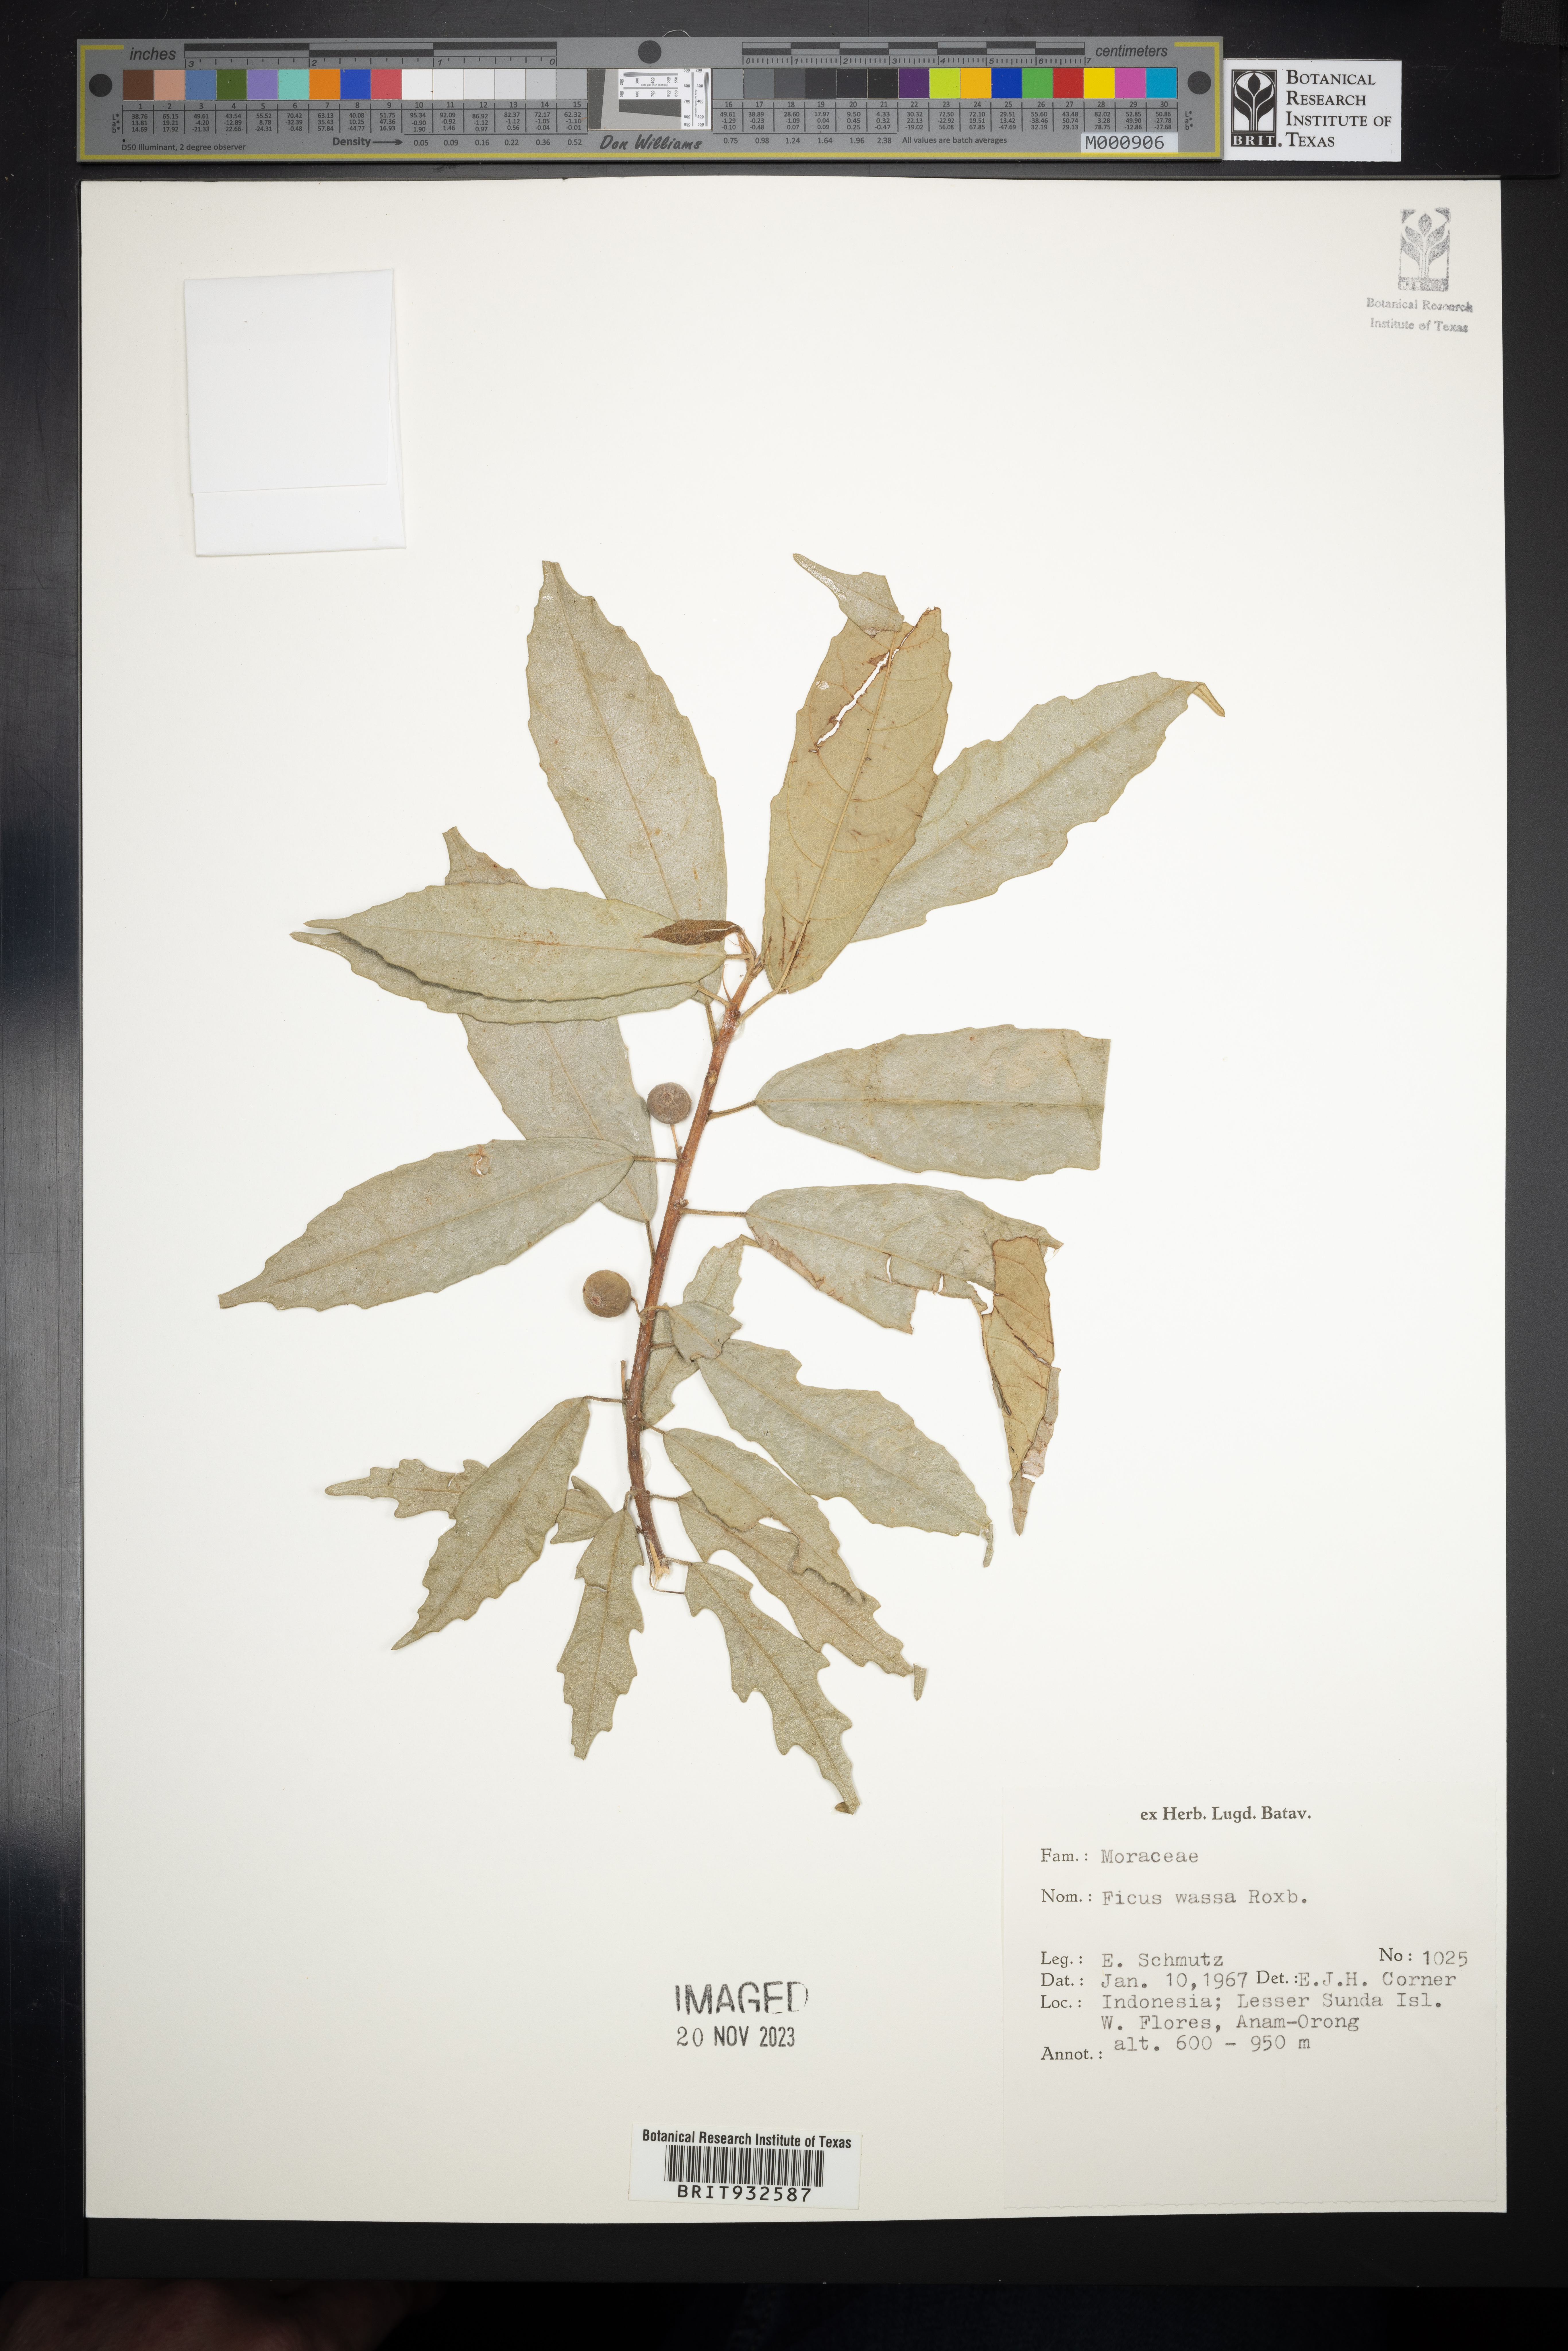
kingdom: Plantae
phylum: Tracheophyta
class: Magnoliopsida
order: Rosales
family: Moraceae
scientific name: Moraceae
